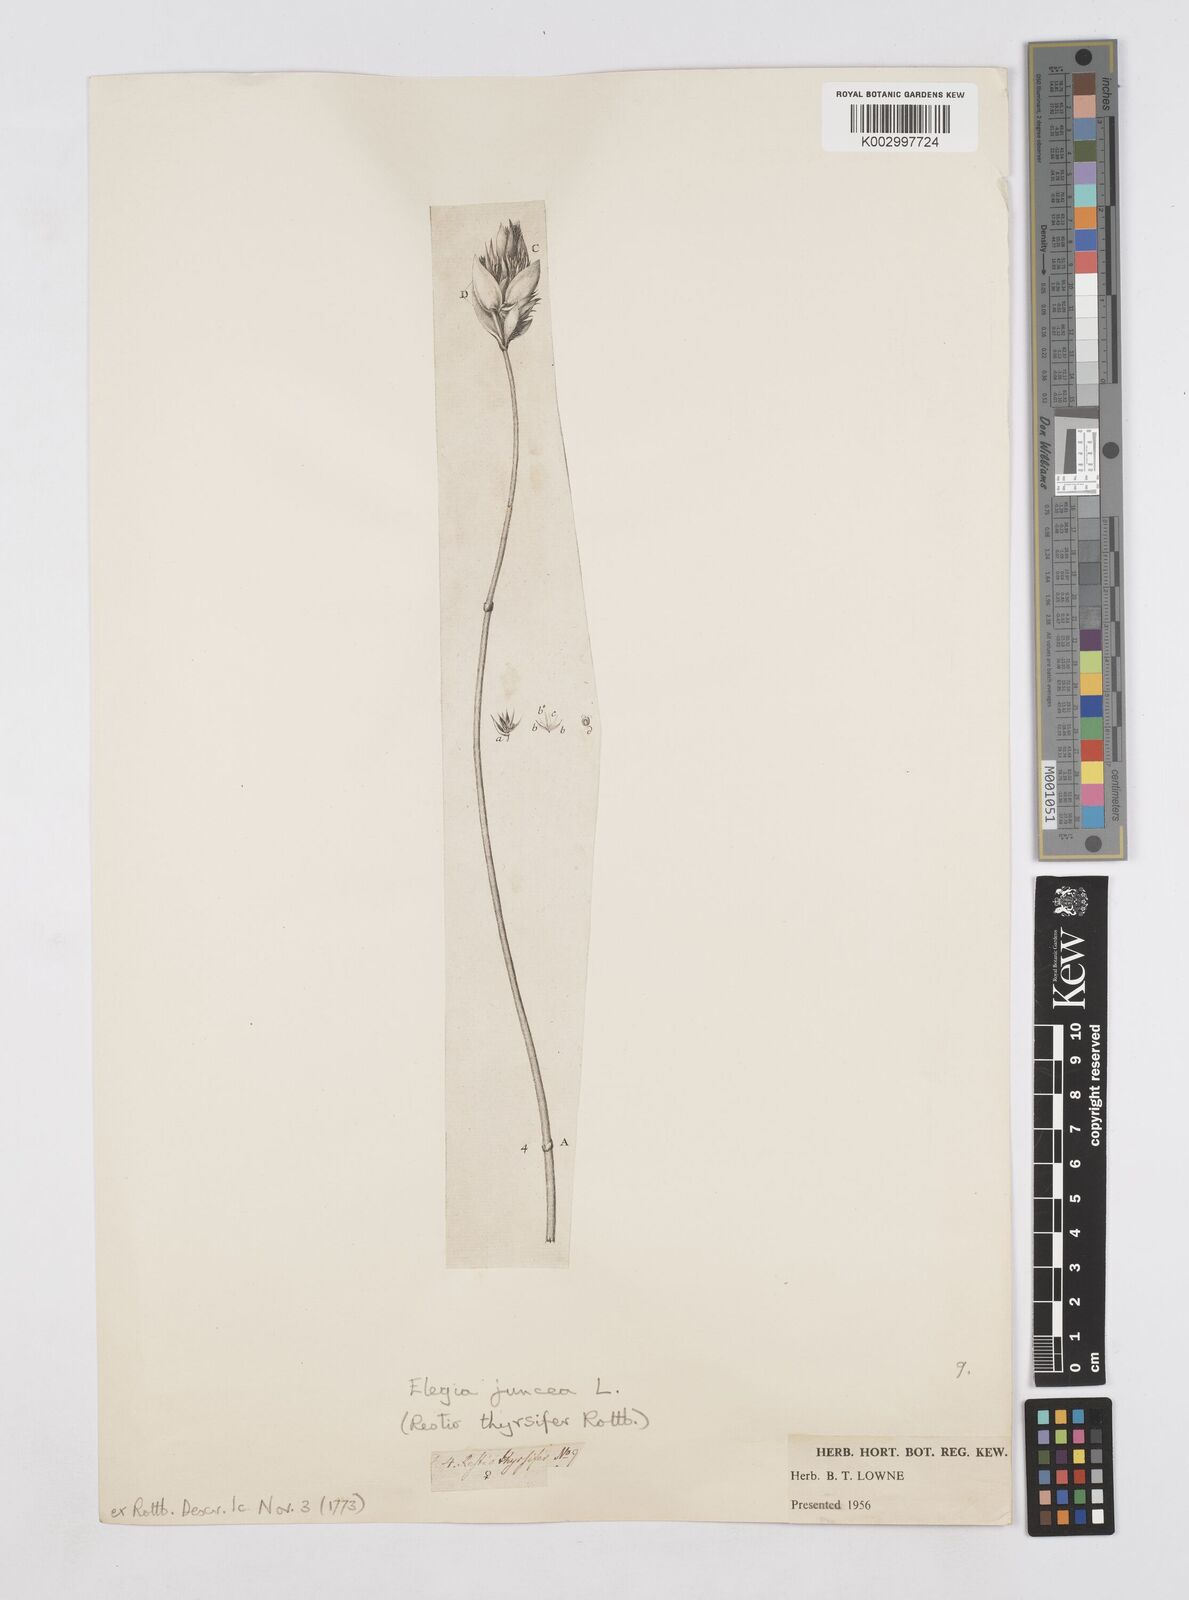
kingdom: Plantae
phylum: Tracheophyta
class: Liliopsida
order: Poales
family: Restionaceae
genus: Elegia
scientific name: Elegia juncea
